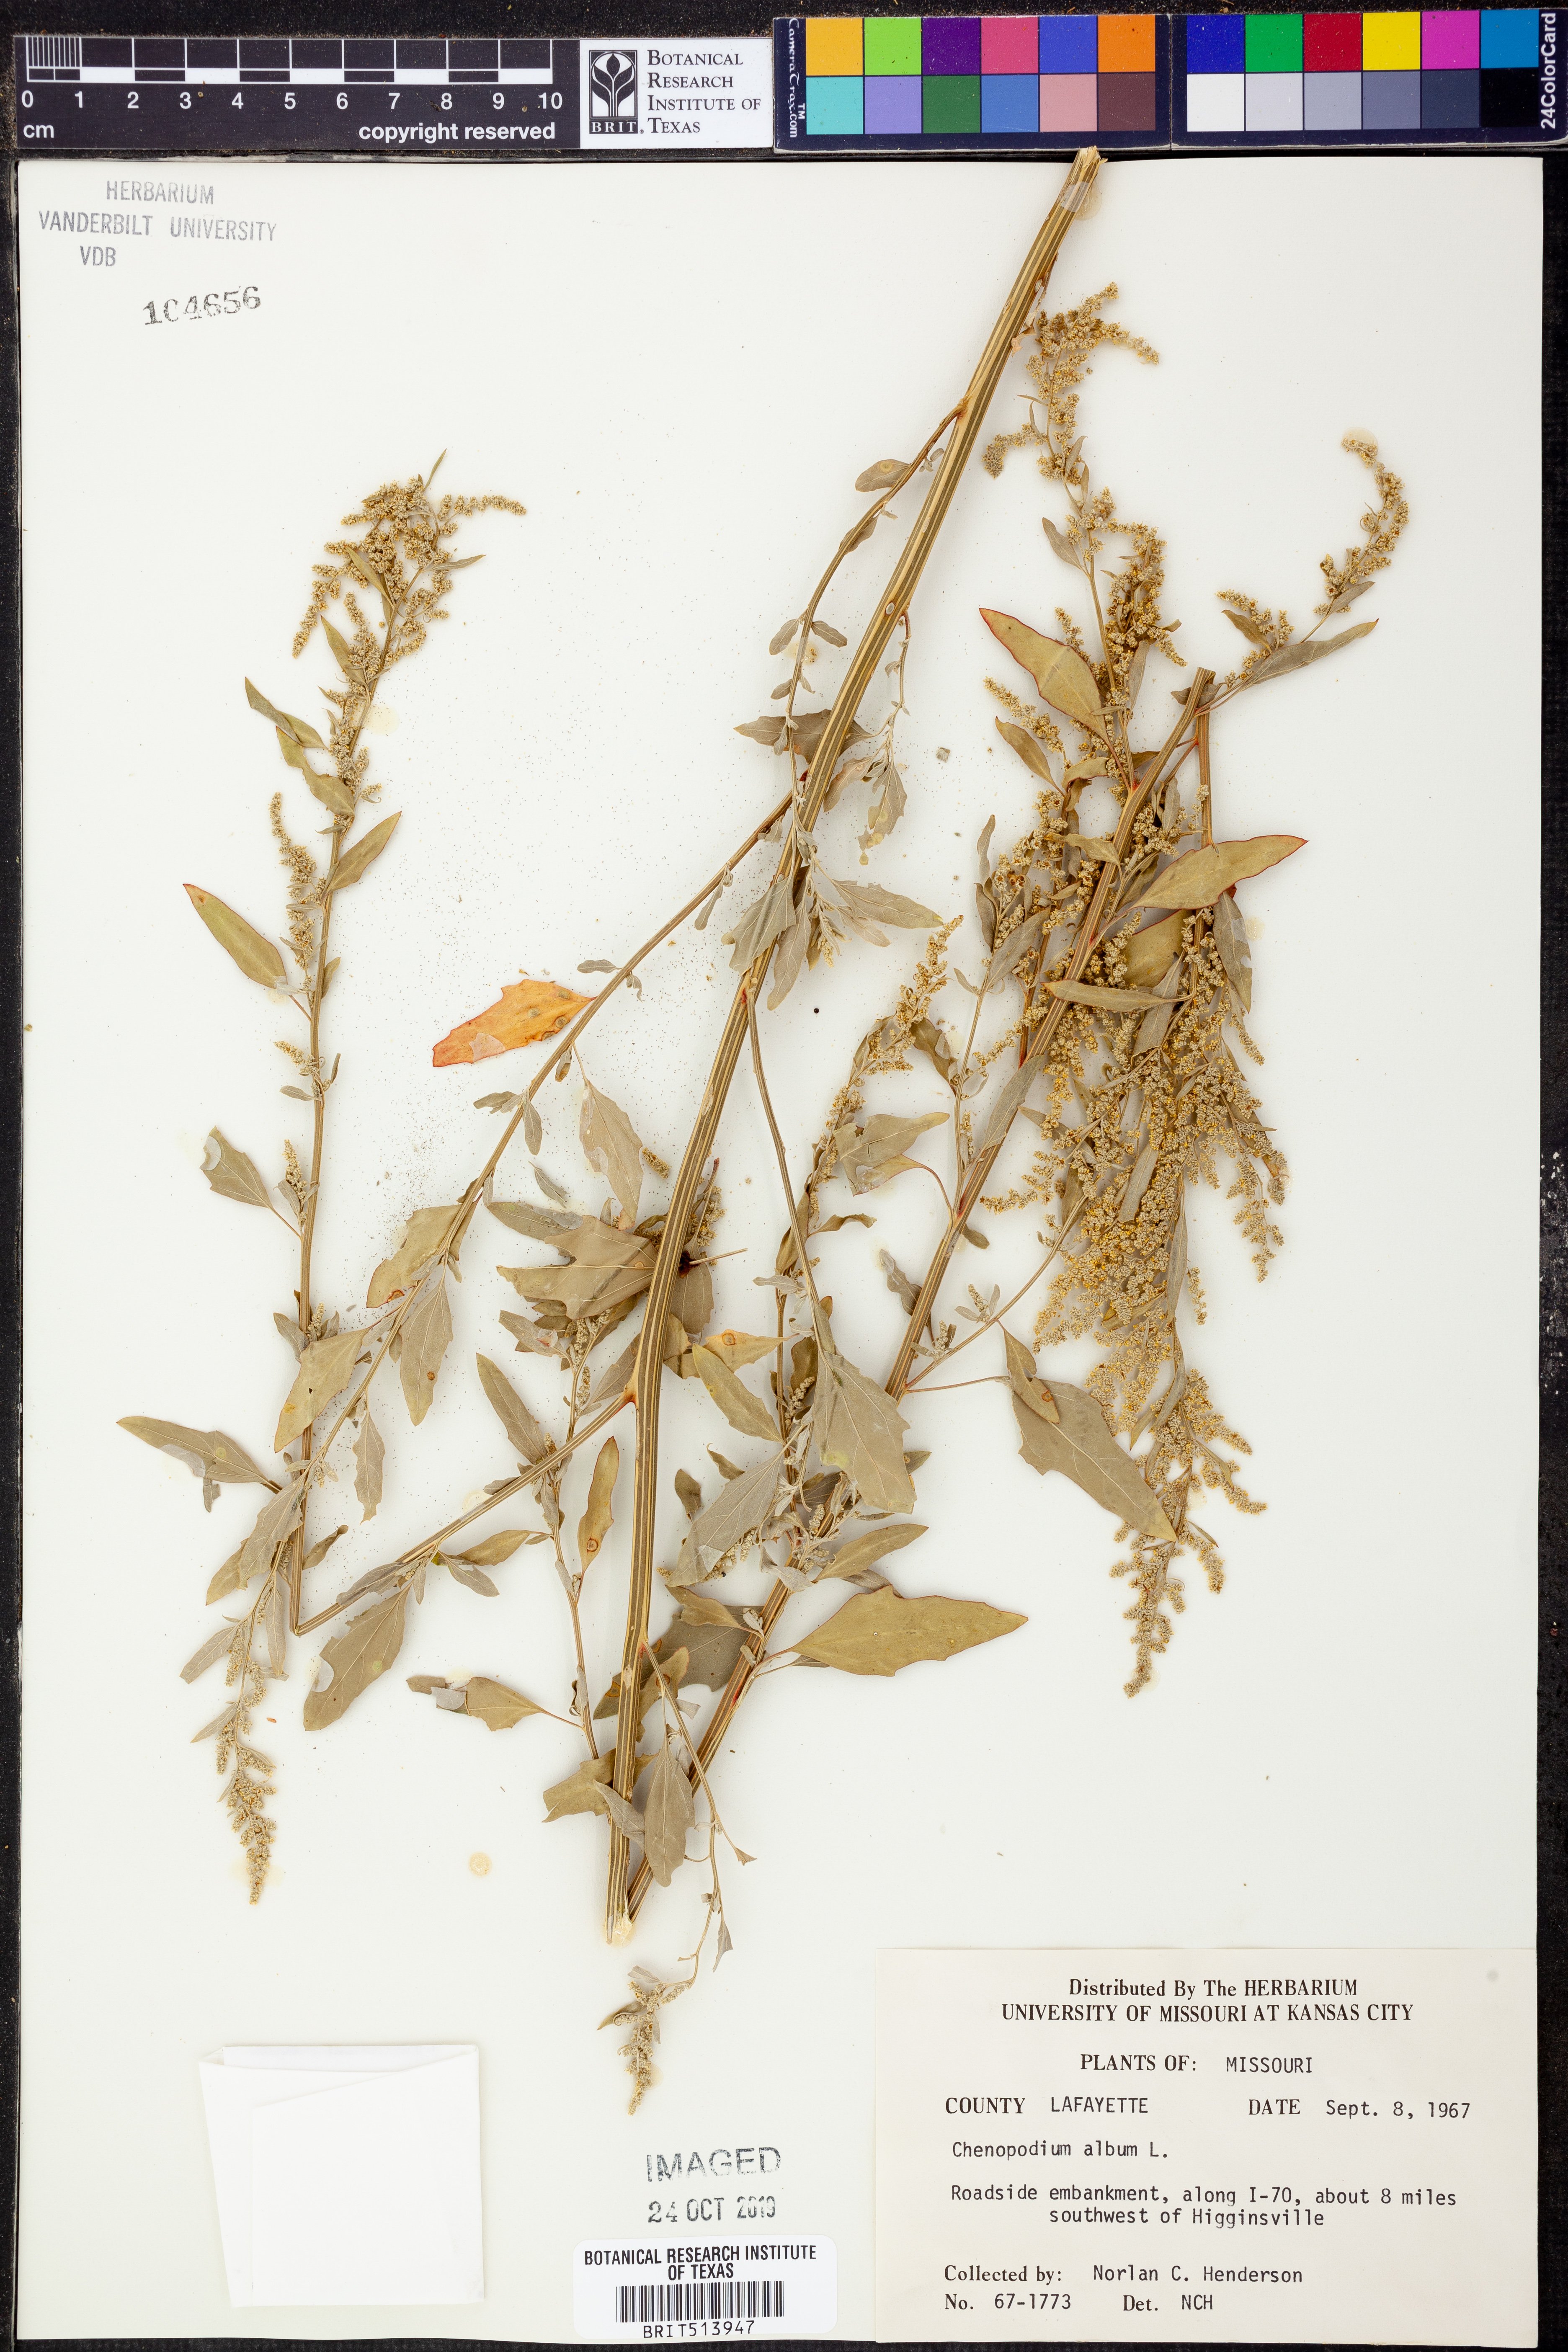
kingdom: Plantae
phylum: Tracheophyta
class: Magnoliopsida
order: Caryophyllales
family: Amaranthaceae
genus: Chenopodium
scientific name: Chenopodium album
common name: Fat-hen
